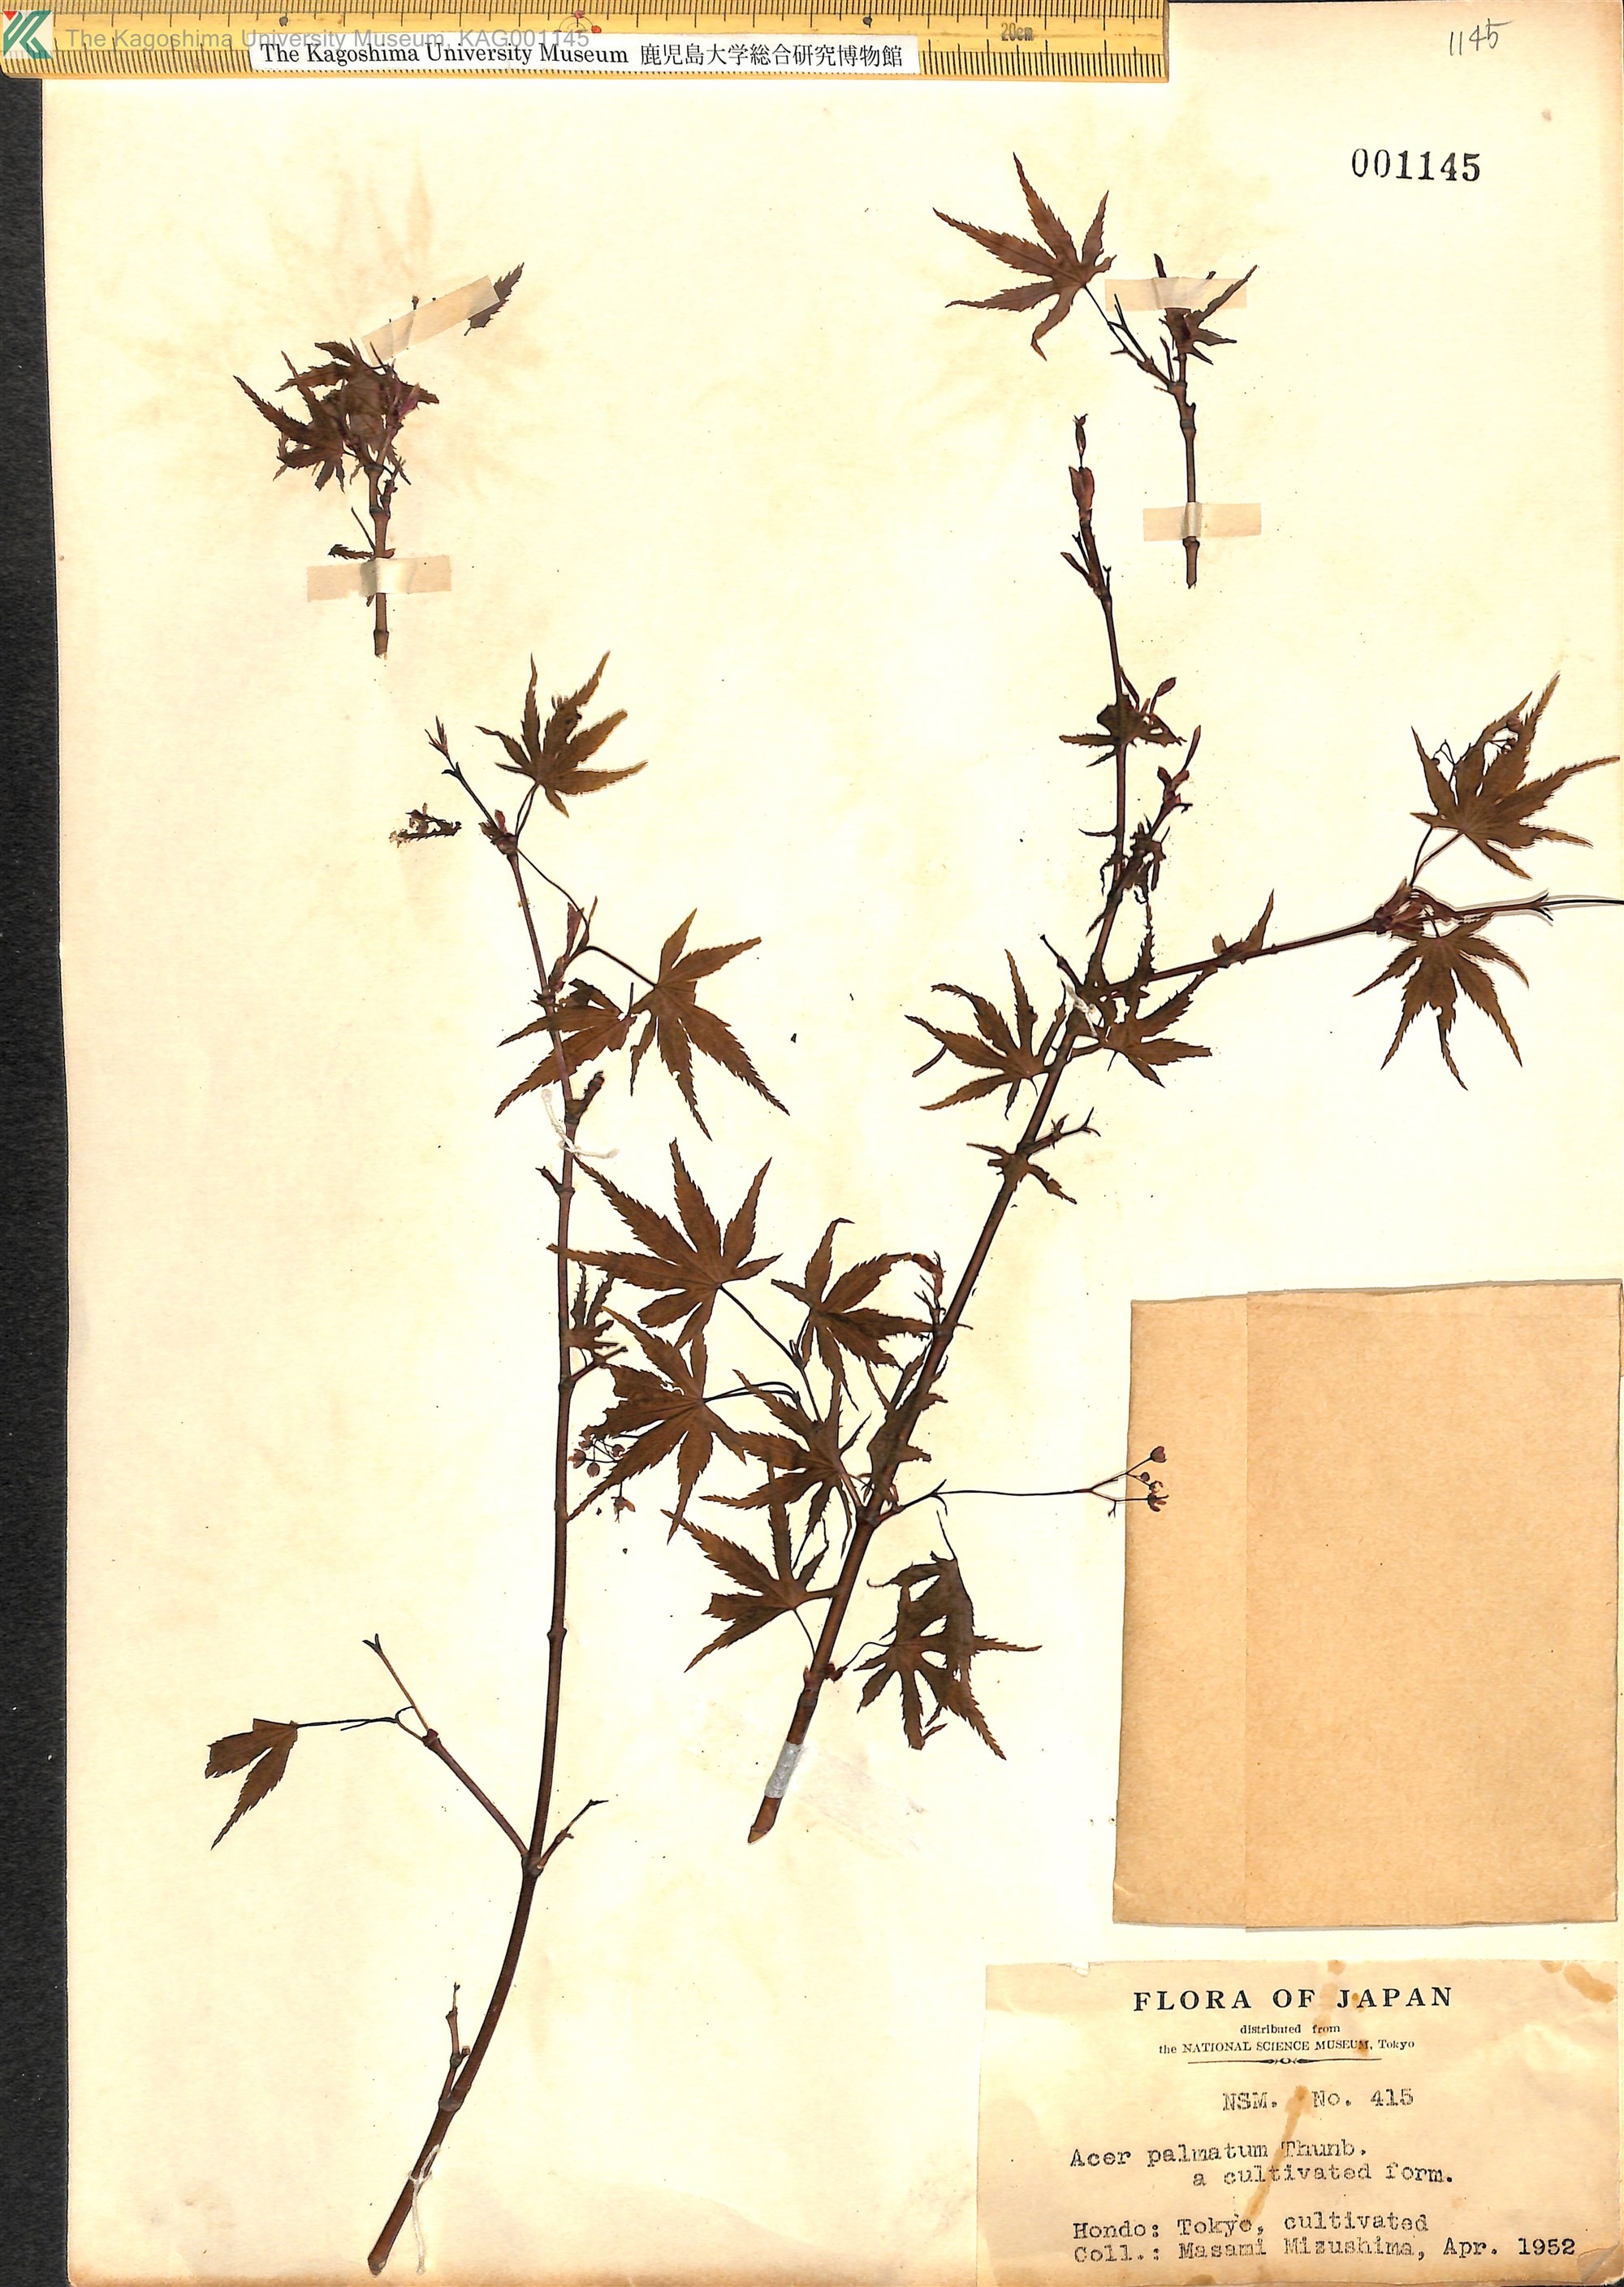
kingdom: Plantae
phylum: Tracheophyta
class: Magnoliopsida
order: Sapindales
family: Sapindaceae
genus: Acer
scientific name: Acer palmatum
